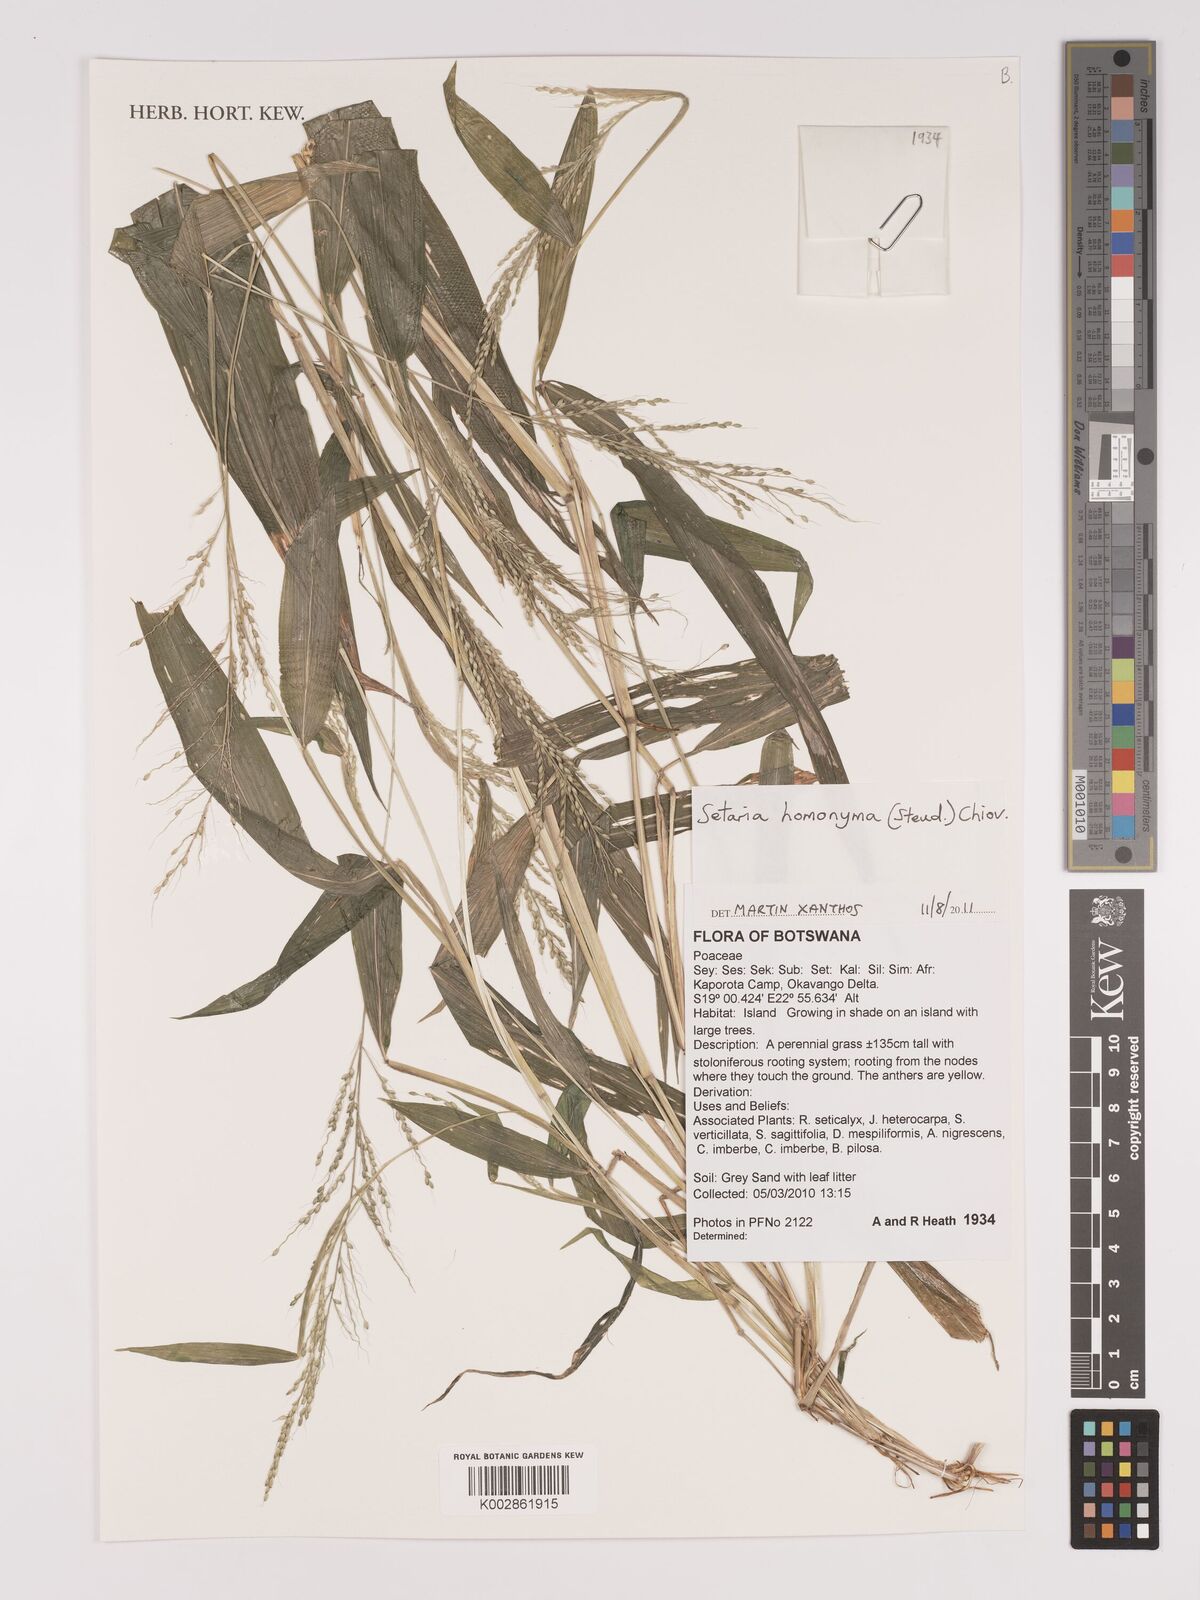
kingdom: Plantae
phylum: Tracheophyta
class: Liliopsida
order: Poales
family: Poaceae
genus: Setaria
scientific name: Setaria homonyma
